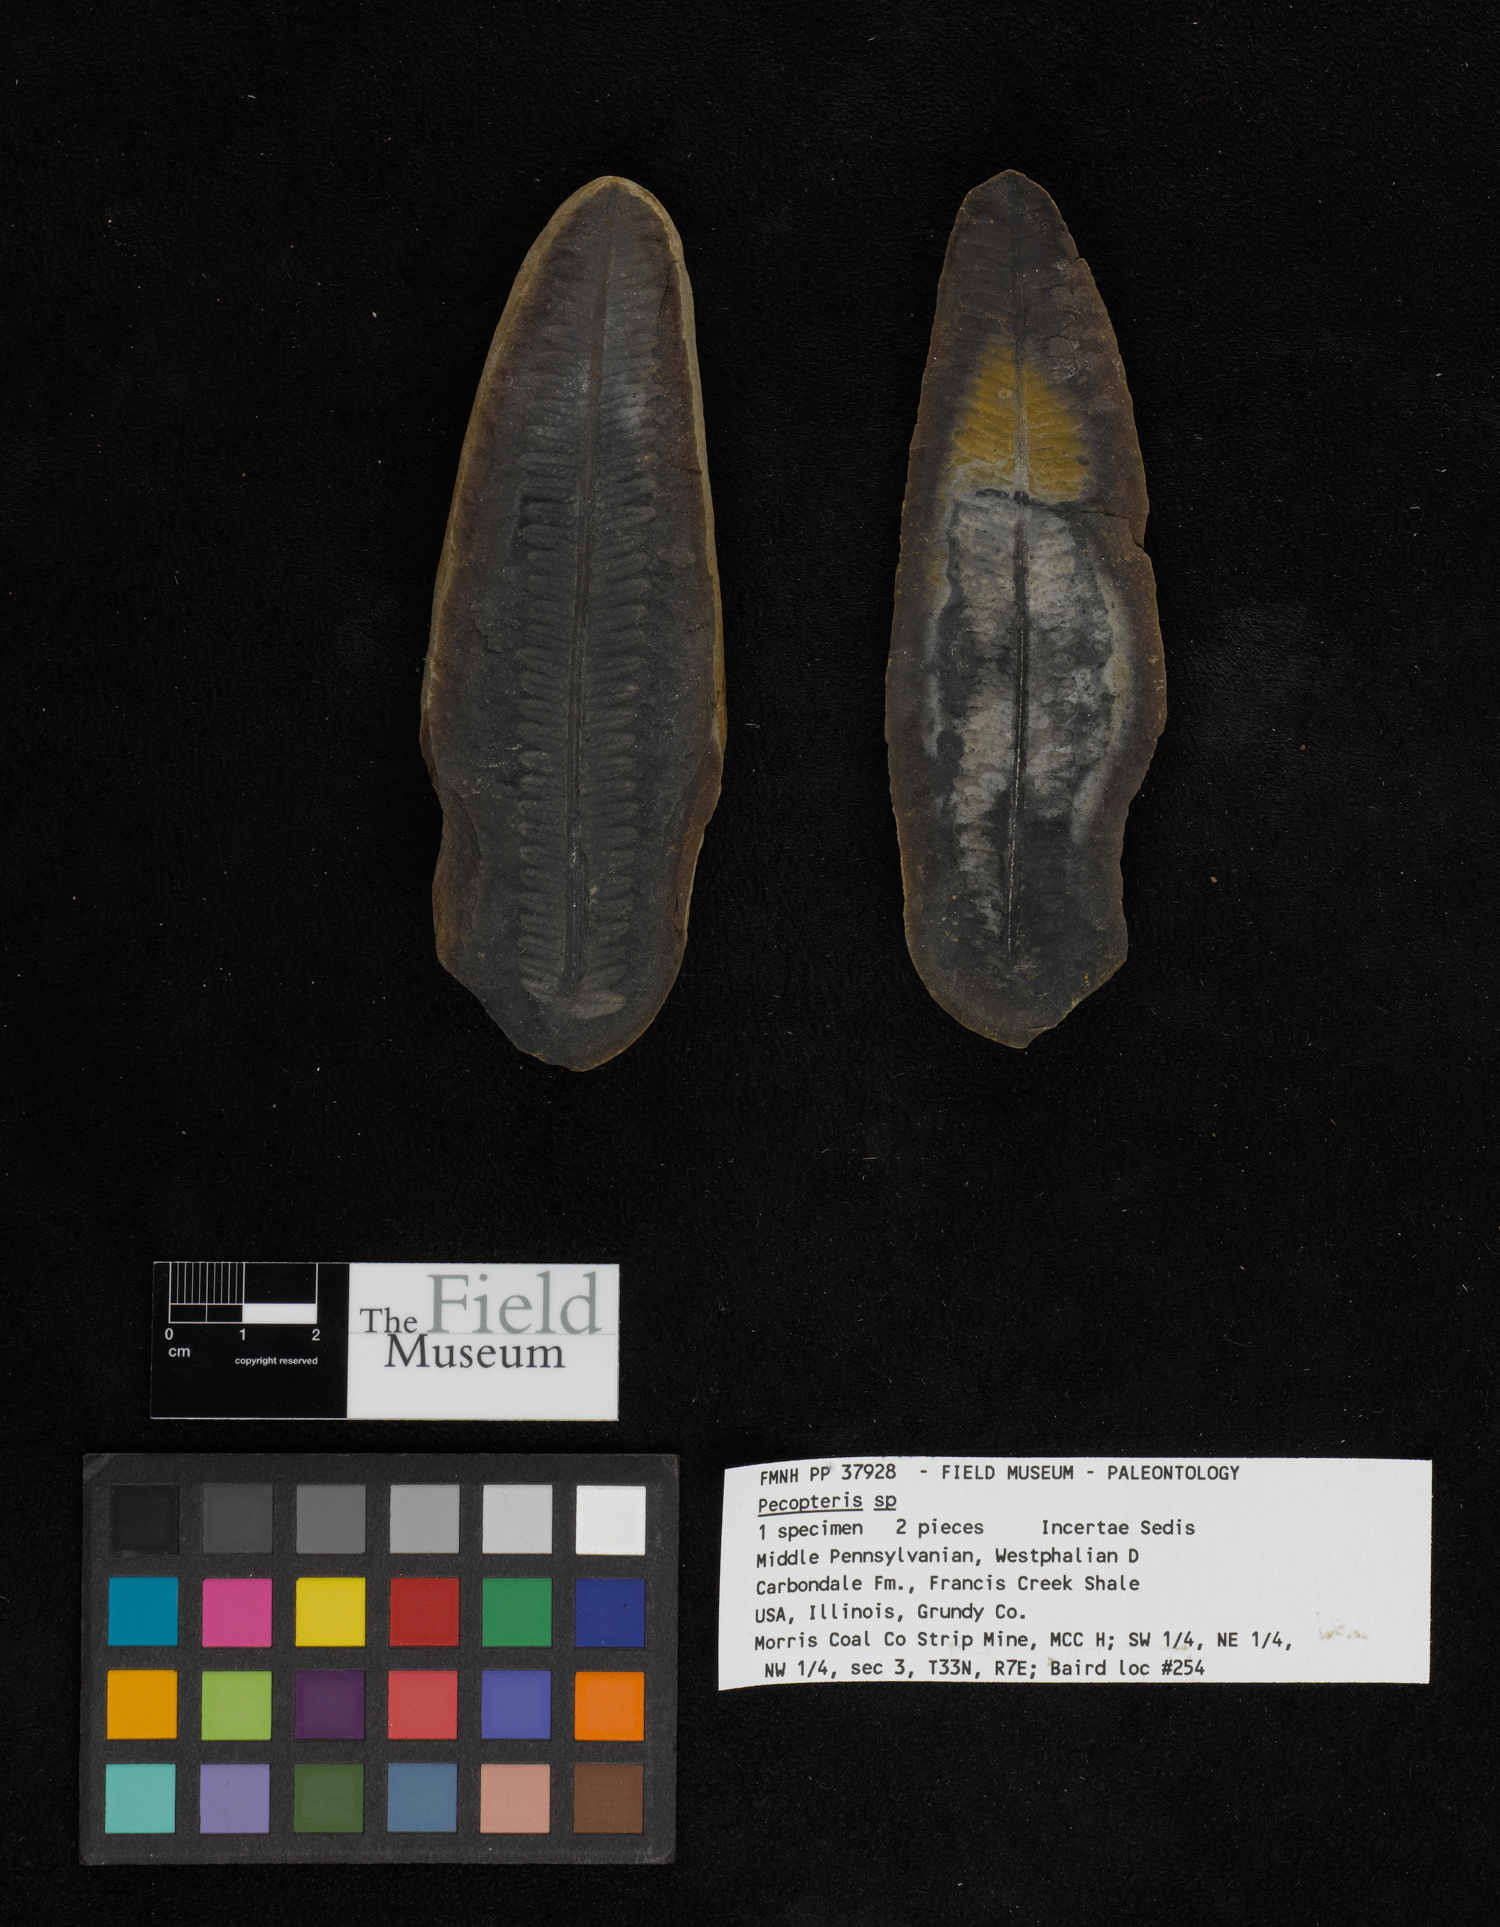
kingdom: Plantae
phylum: Tracheophyta
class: Polypodiopsida
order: Marattiales
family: Asterothecaceae
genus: Pecopteris
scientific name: Pecopteris
